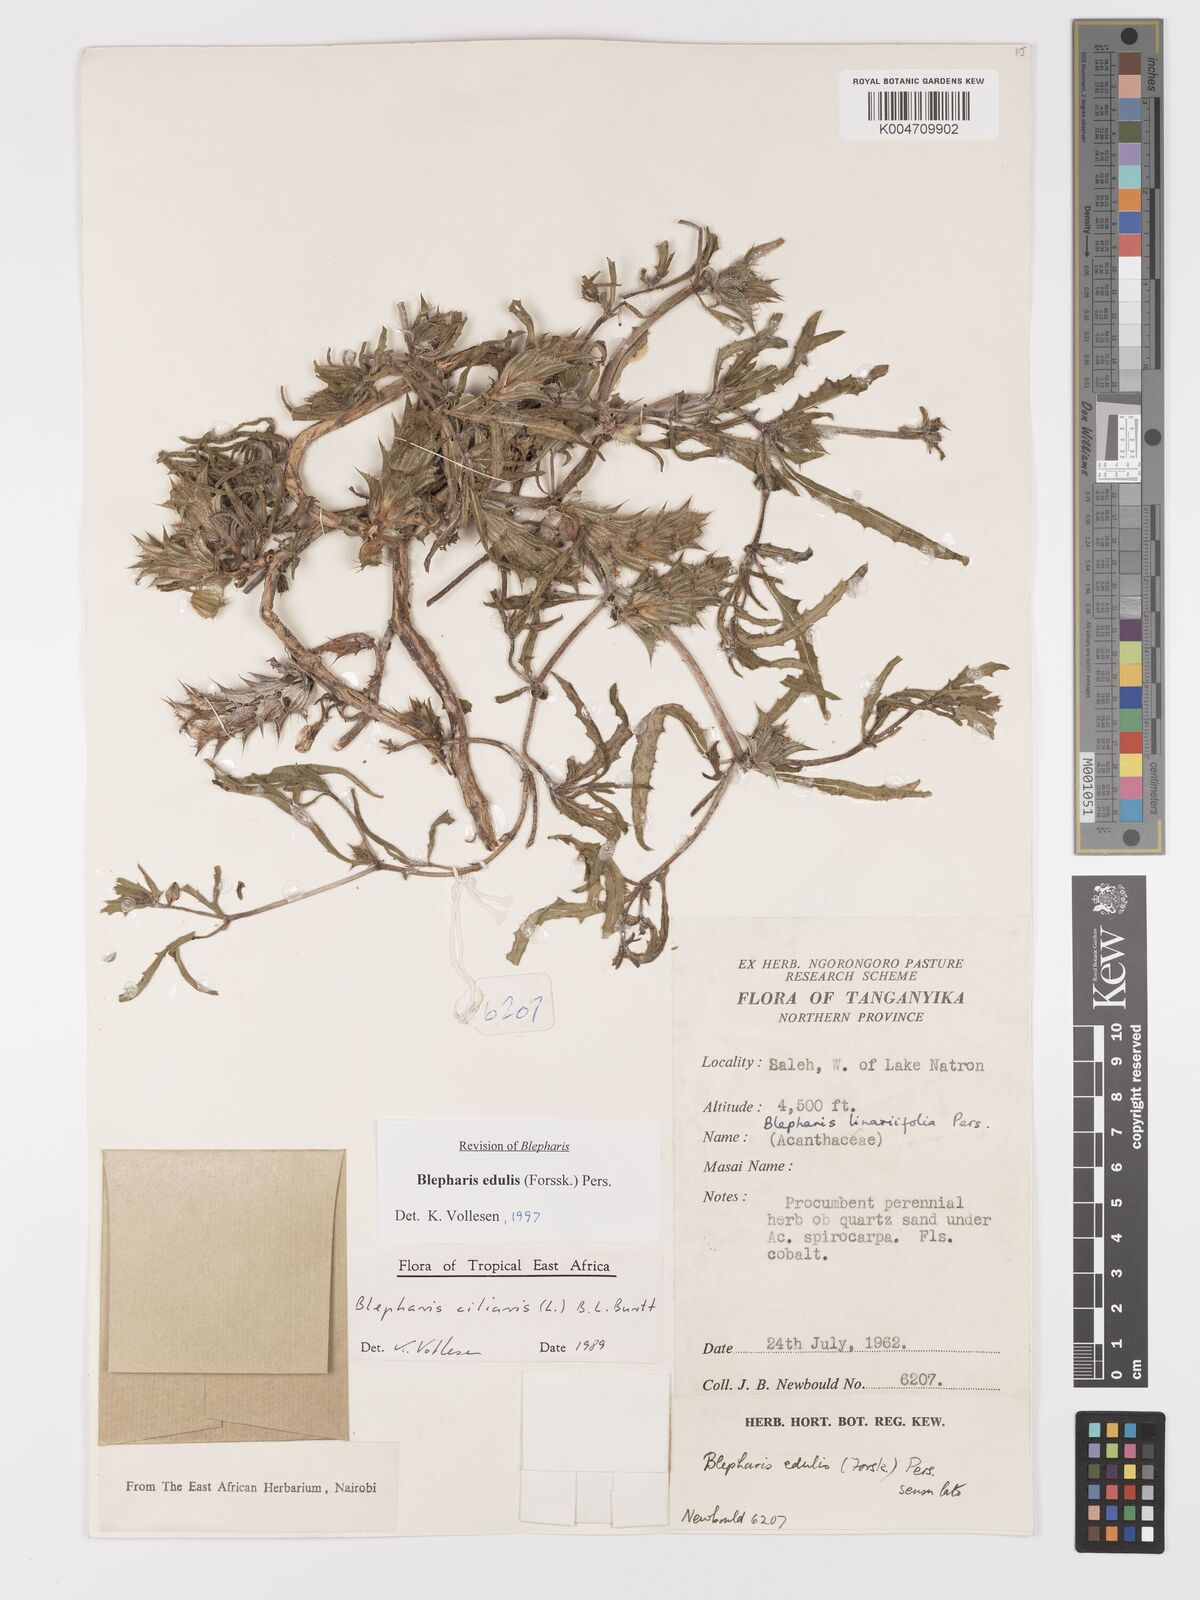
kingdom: Plantae
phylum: Tracheophyta
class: Magnoliopsida
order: Lamiales
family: Acanthaceae
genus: Blepharis
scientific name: Blepharis edulis
